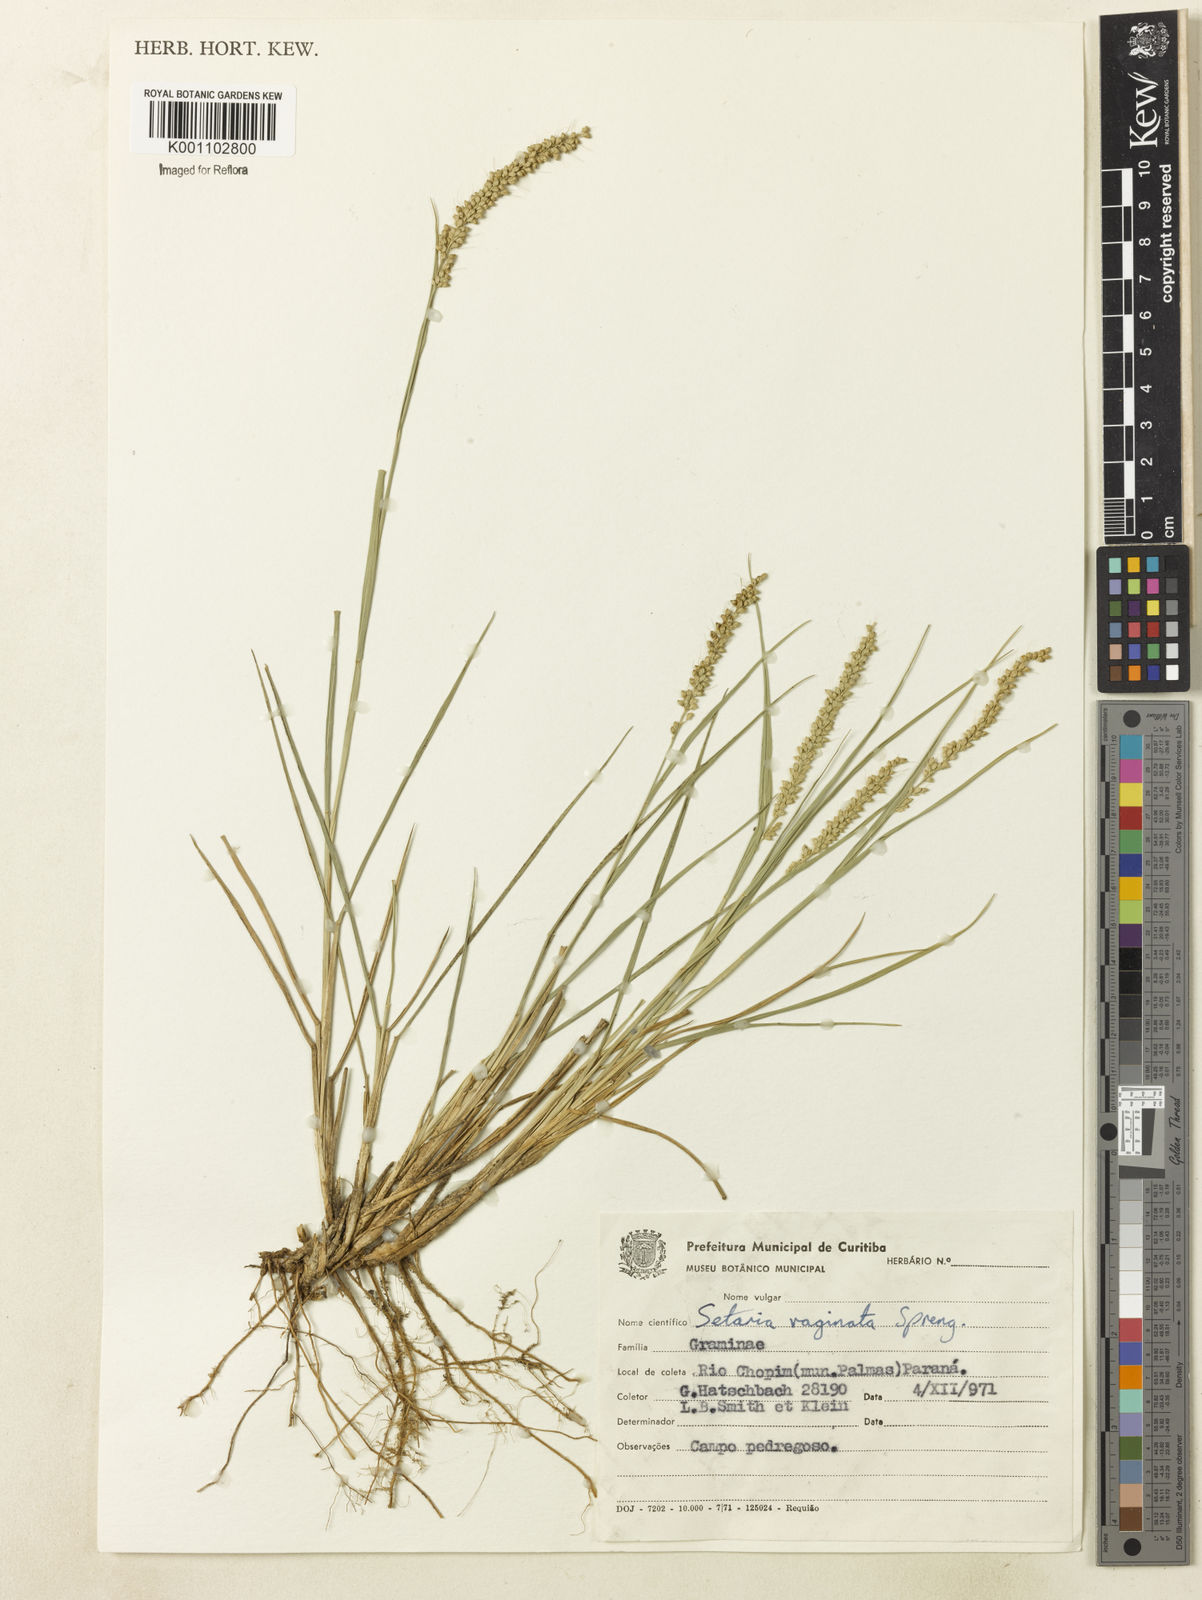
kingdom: Plantae
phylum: Tracheophyta
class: Liliopsida
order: Poales
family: Poaceae
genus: Setaria
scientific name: Setaria setosa
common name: West indies bristle grass
